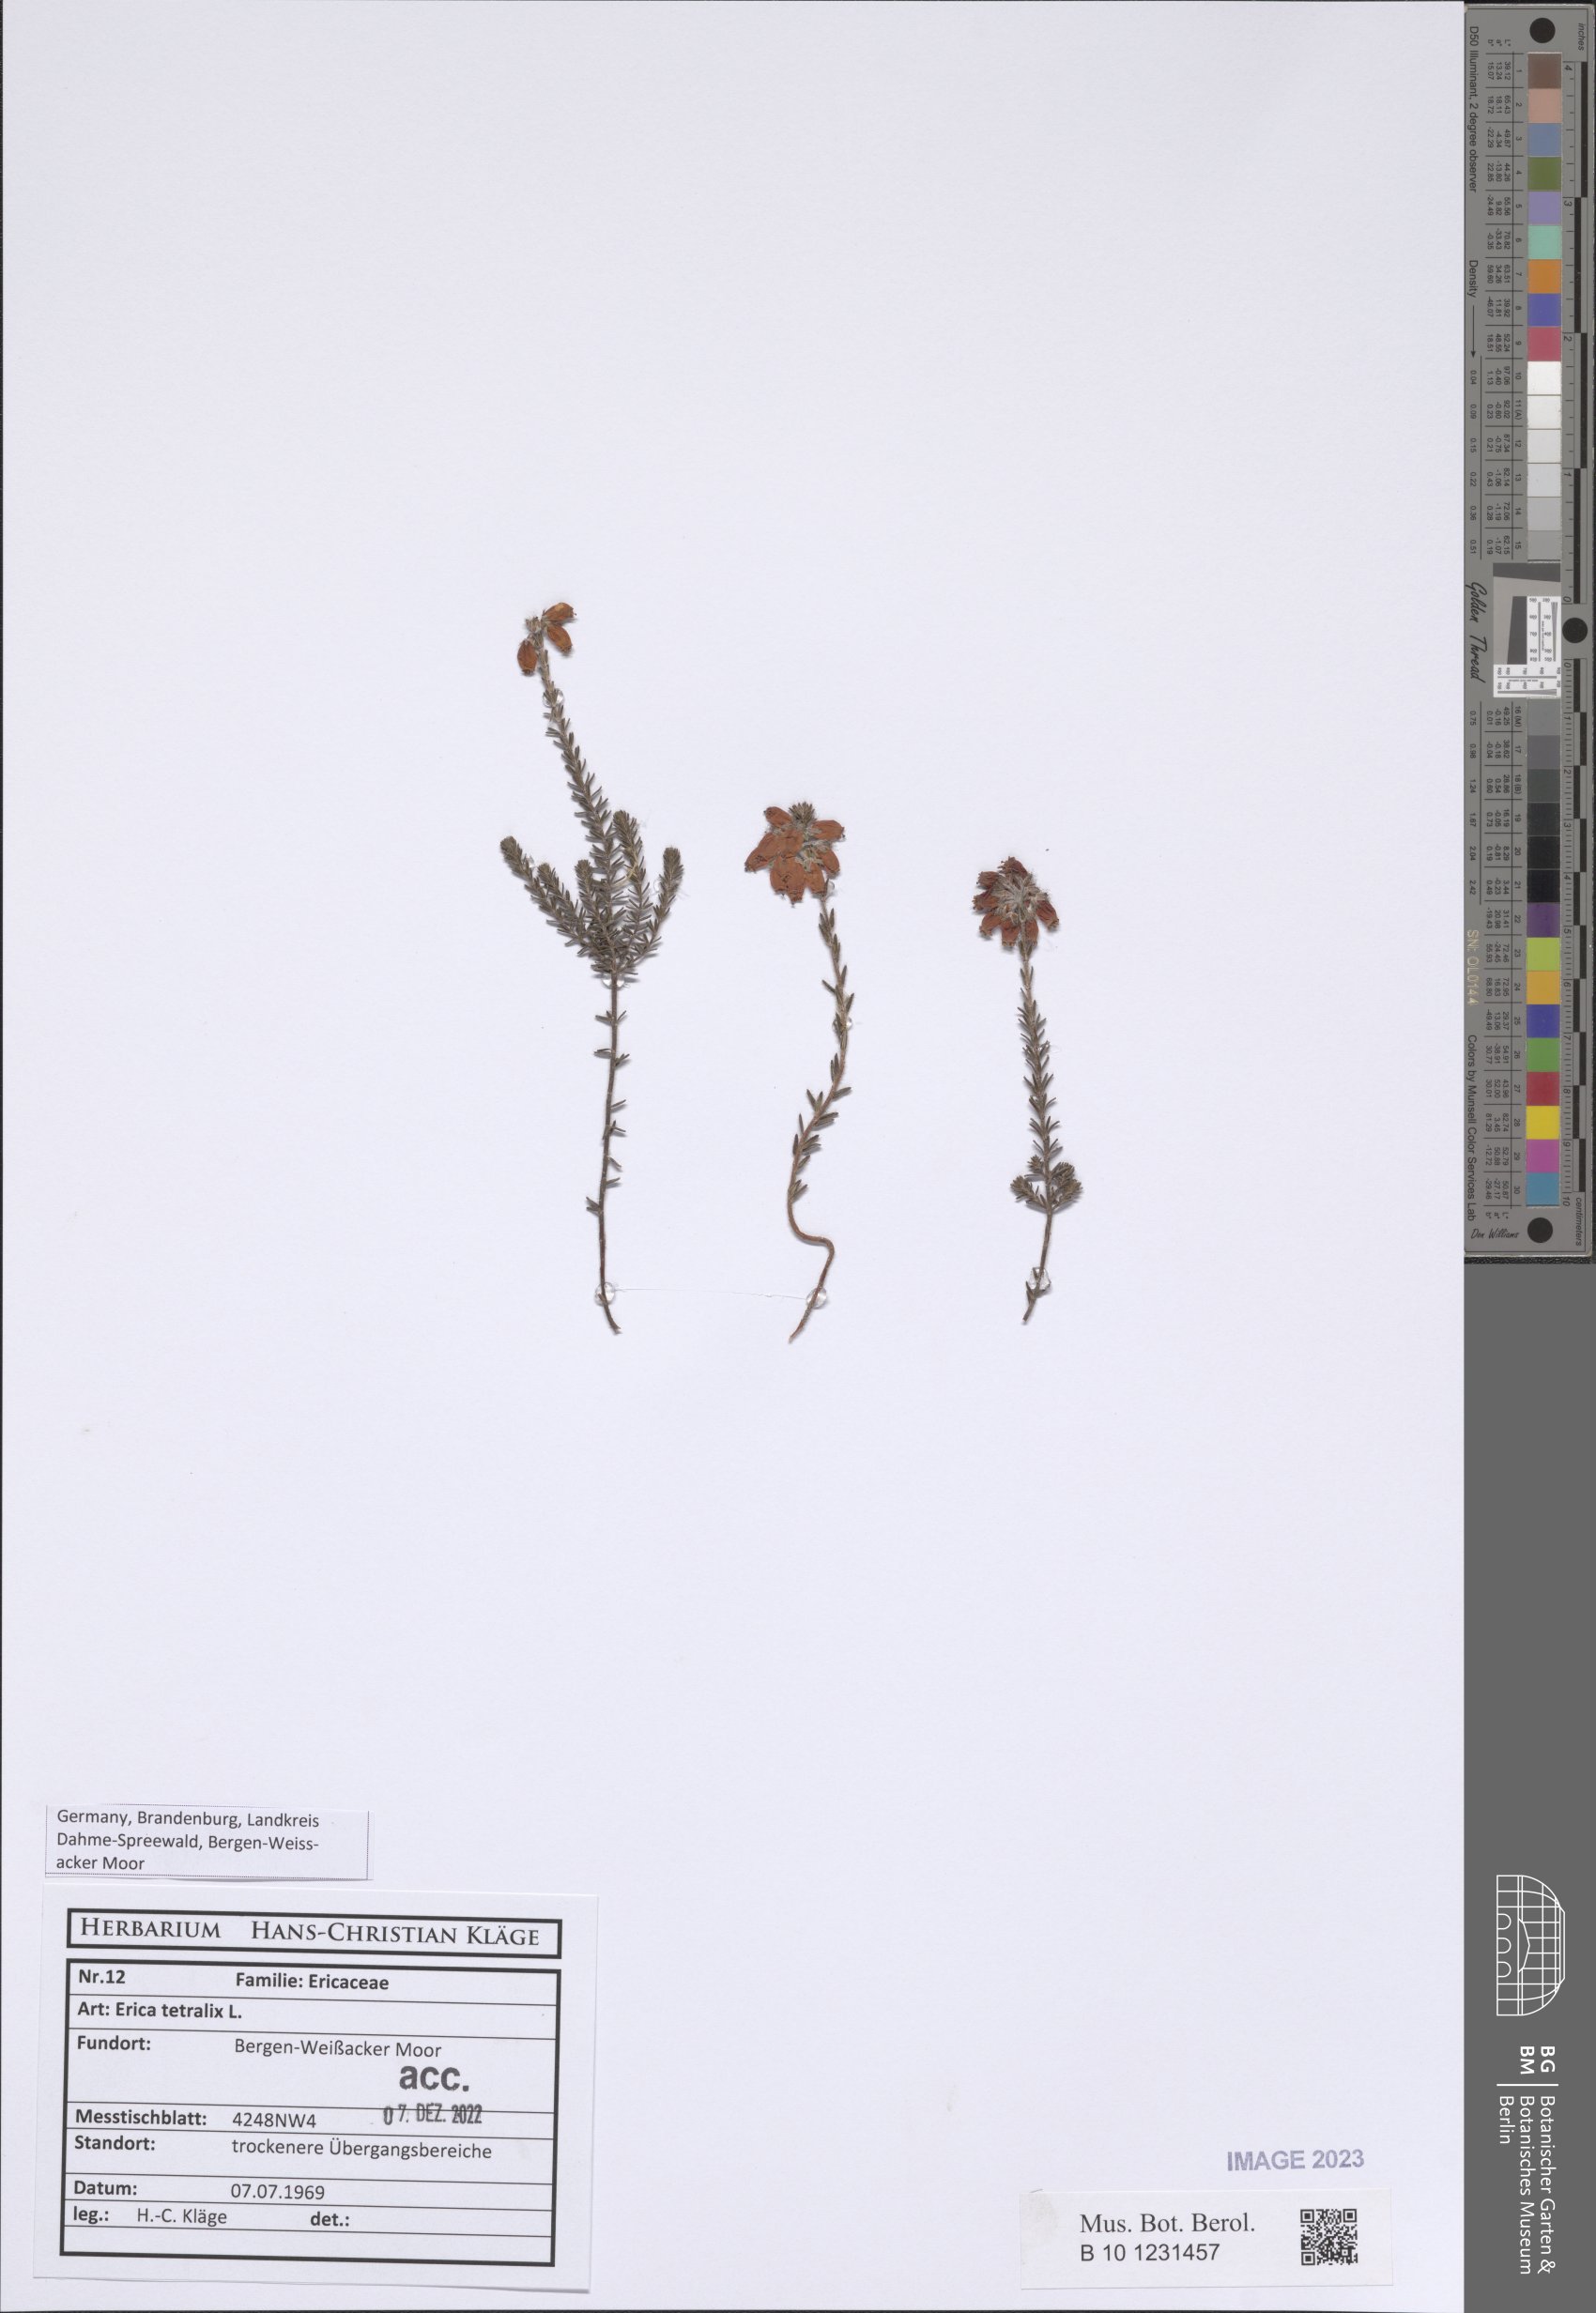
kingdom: Plantae
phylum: Tracheophyta
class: Magnoliopsida
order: Ericales
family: Ericaceae
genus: Erica
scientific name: Erica tetralix
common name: Cross-leaved heath
